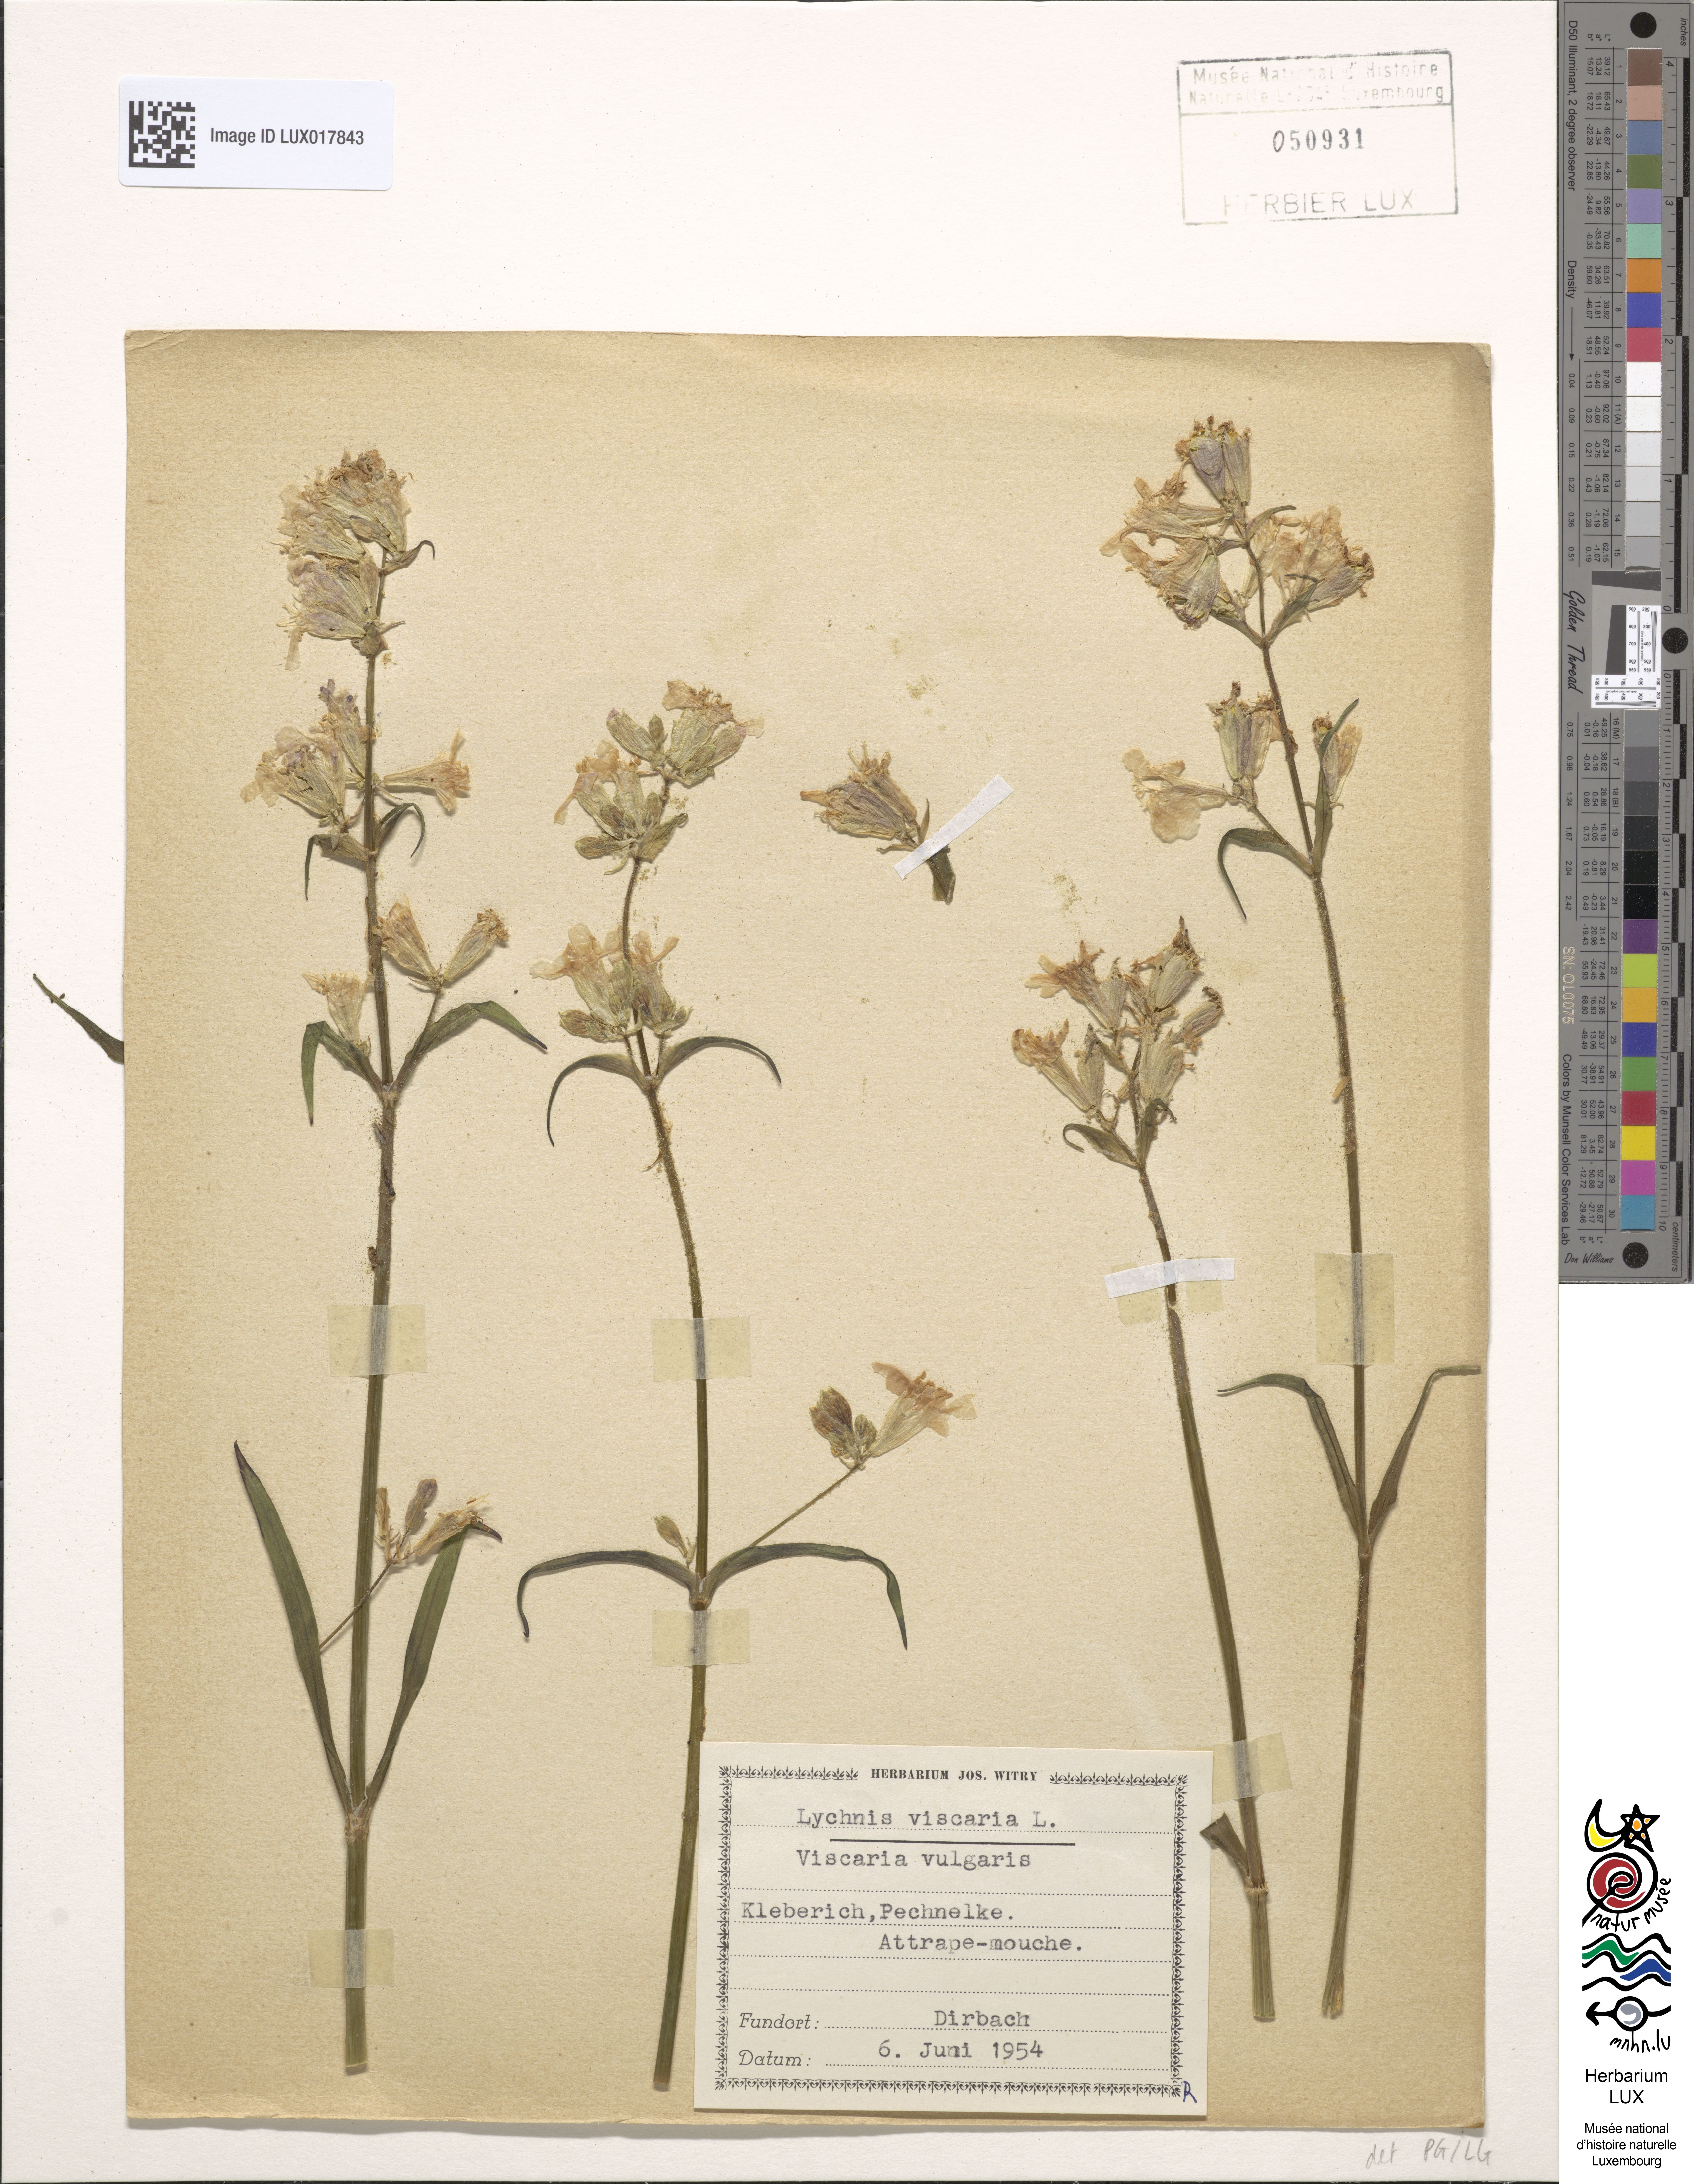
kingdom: Plantae
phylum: Tracheophyta
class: Magnoliopsida
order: Caryophyllales
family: Caryophyllaceae
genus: Viscaria
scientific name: Viscaria vulgaris
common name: Clammy campion
